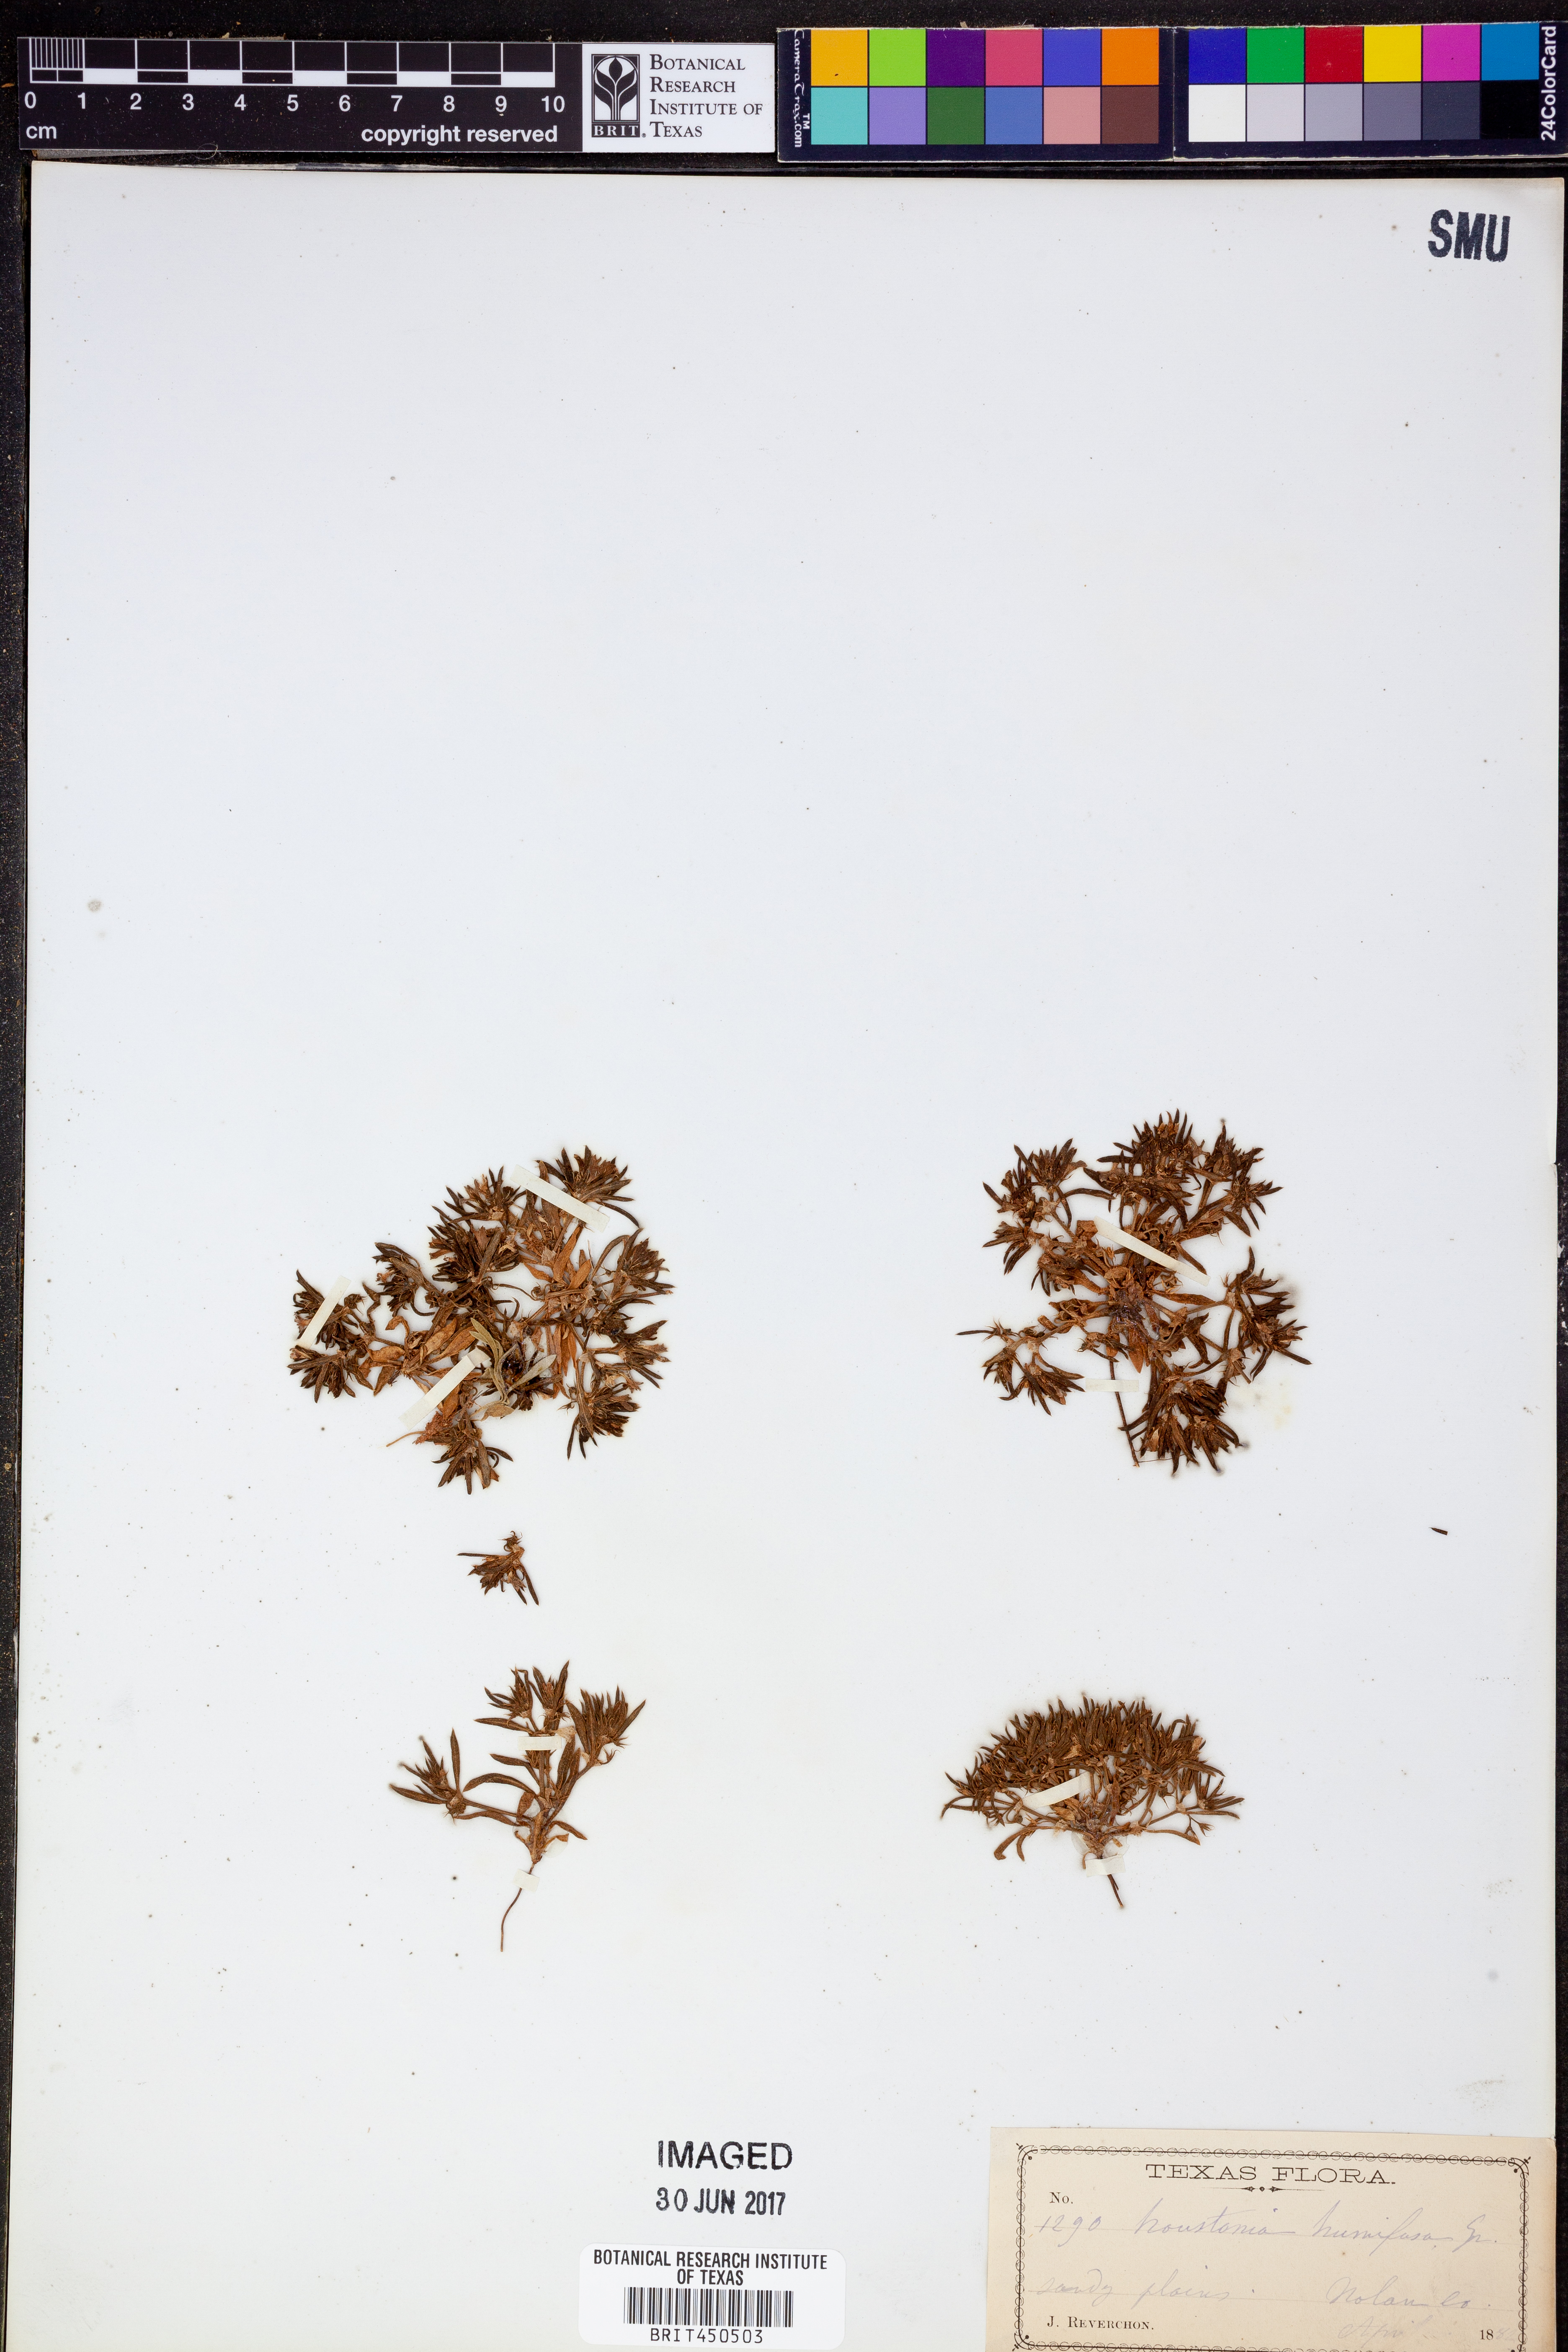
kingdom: Plantae
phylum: Tracheophyta
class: Magnoliopsida
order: Gentianales
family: Rubiaceae
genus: Houstonia
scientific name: Houstonia humifusa
